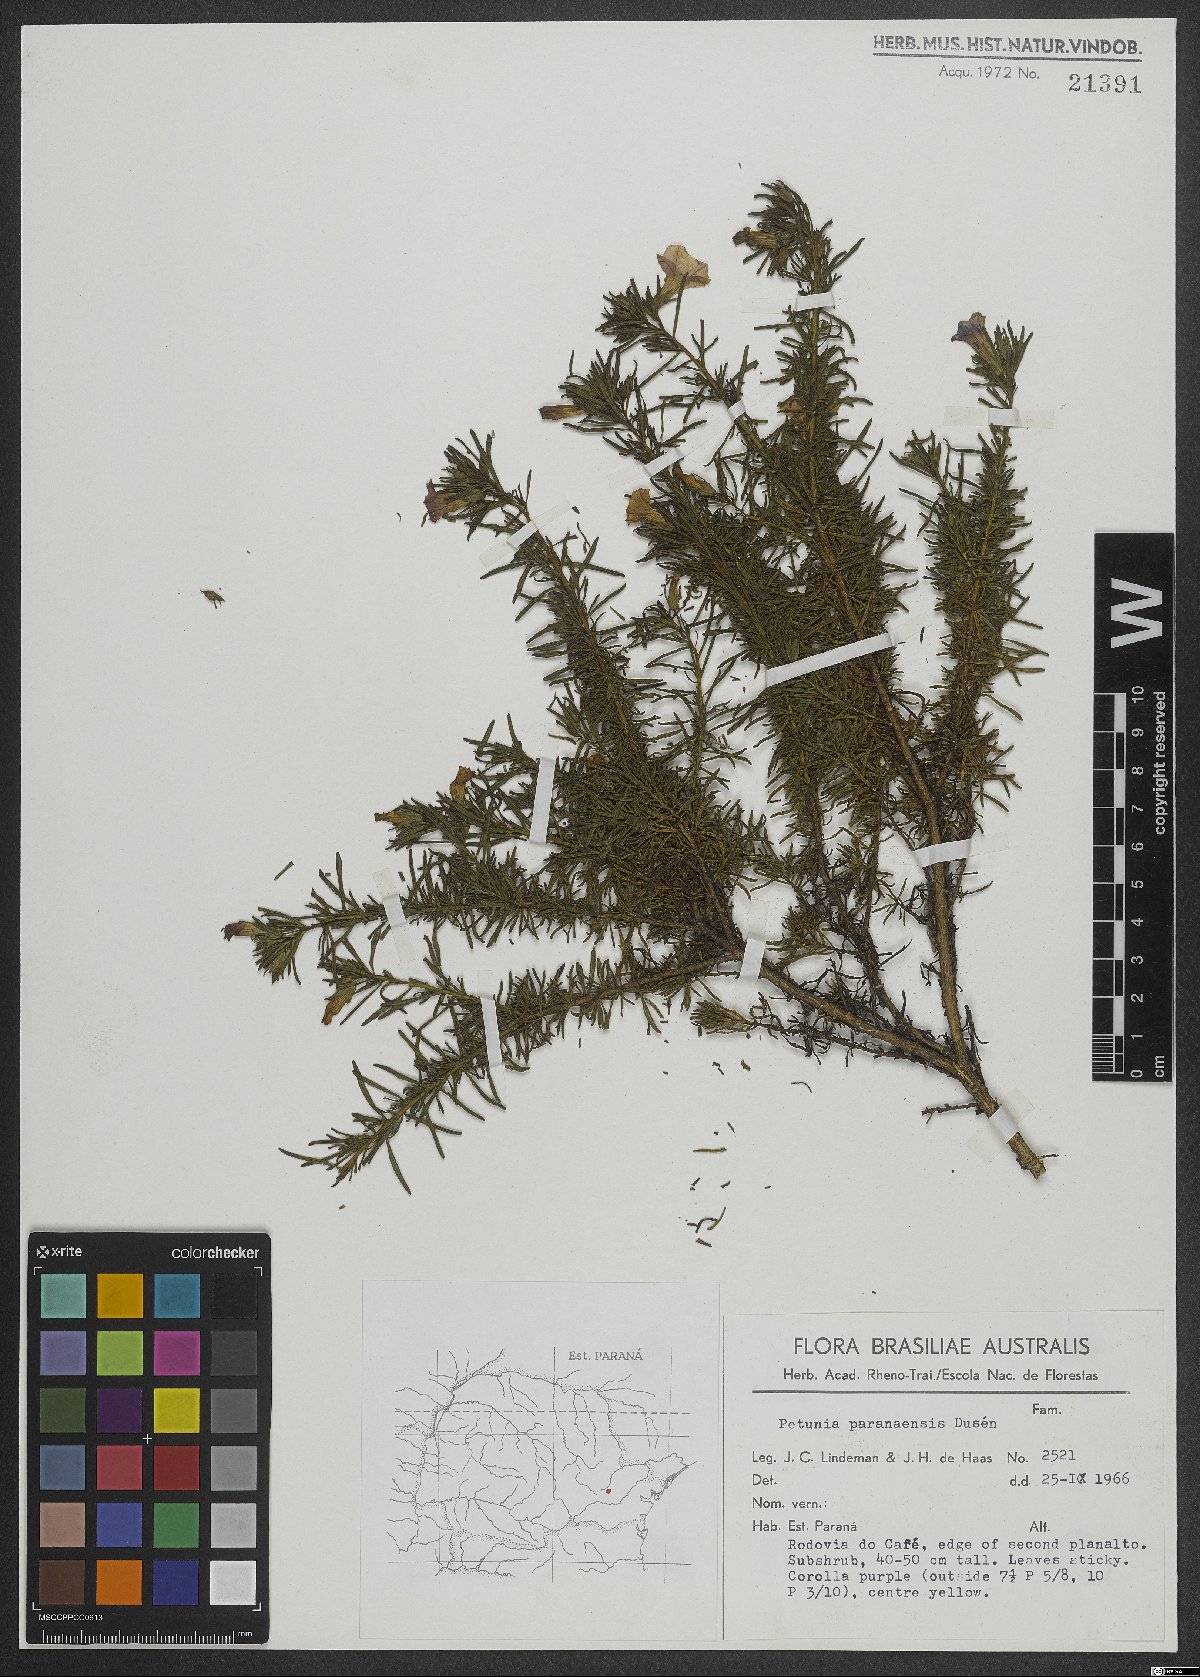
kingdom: Plantae
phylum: Tracheophyta
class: Magnoliopsida
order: Solanales
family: Solanaceae
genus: Calibrachoa
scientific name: Calibrachoa paranensis
